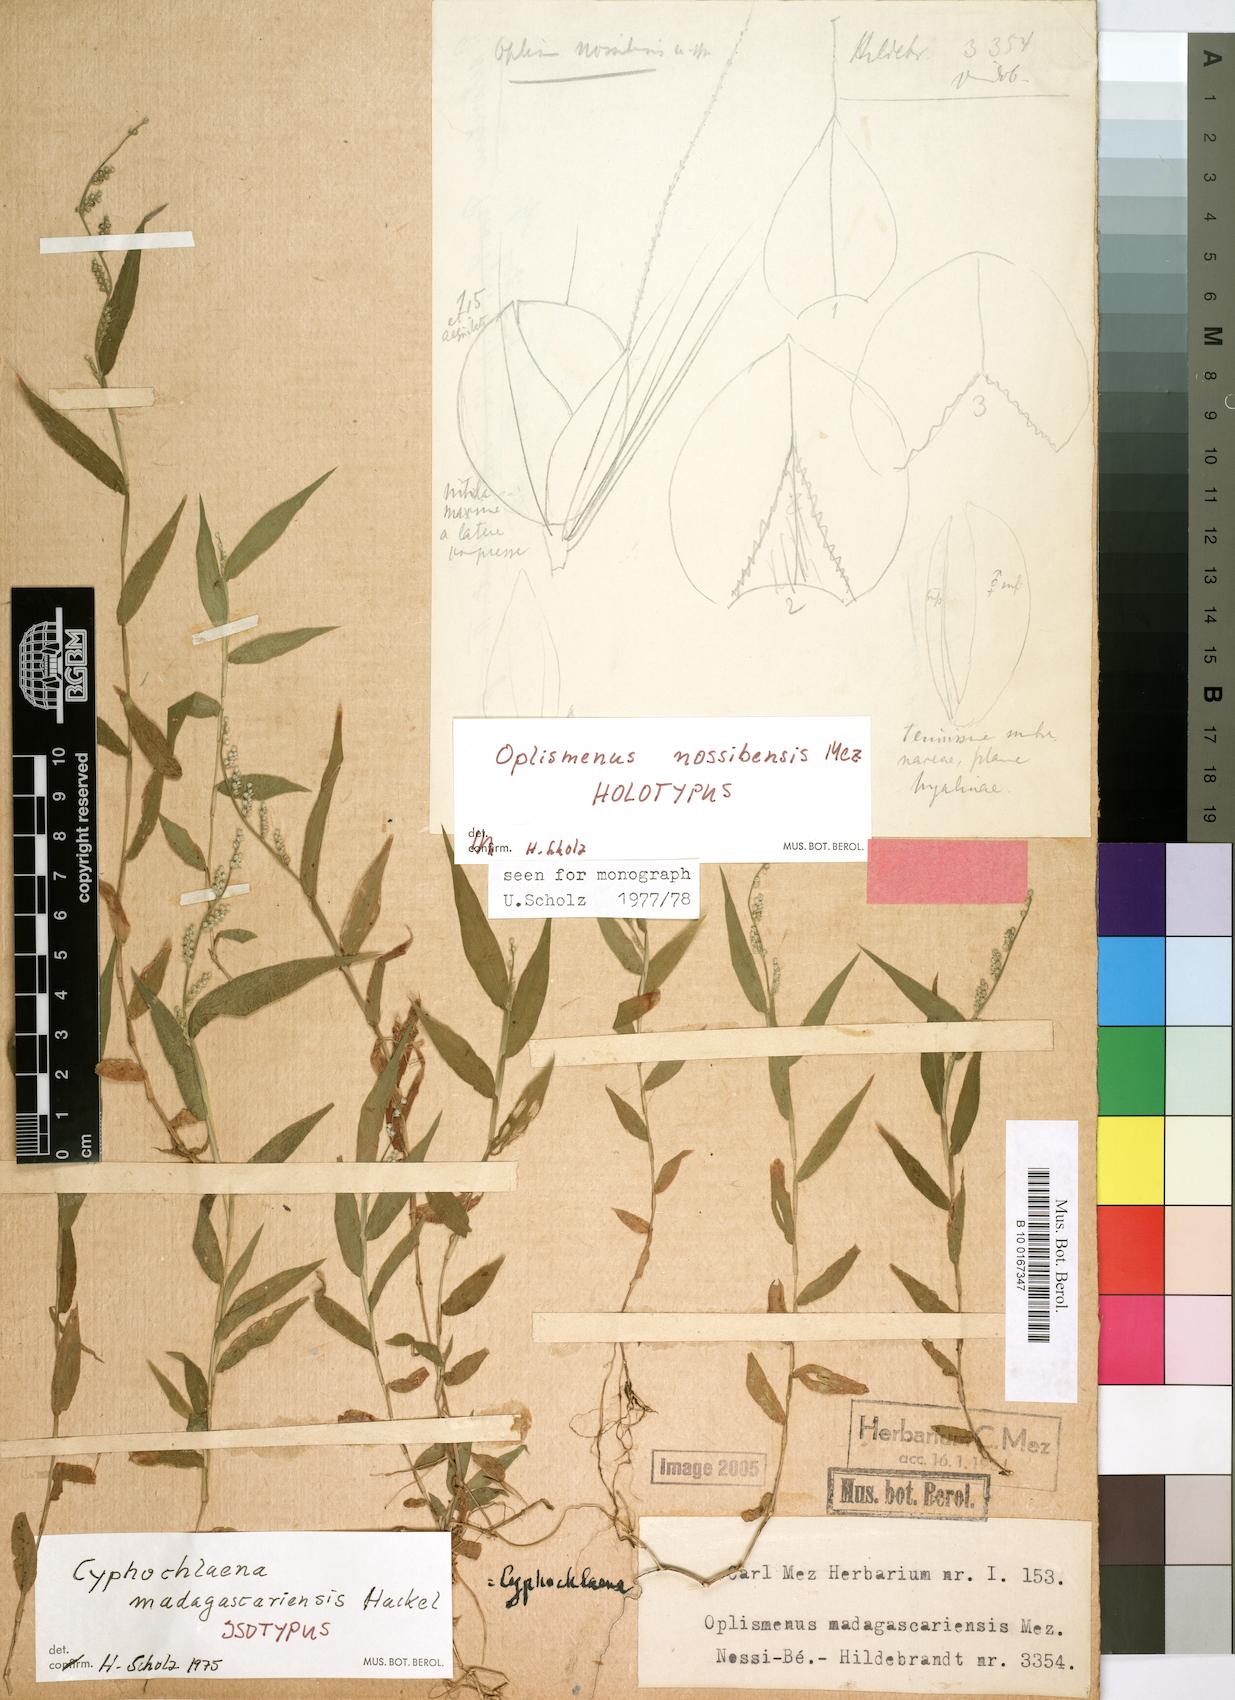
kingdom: Plantae
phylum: Tracheophyta
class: Liliopsida
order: Poales
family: Poaceae
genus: Cyphochlaena
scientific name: Cyphochlaena madagascariensis
